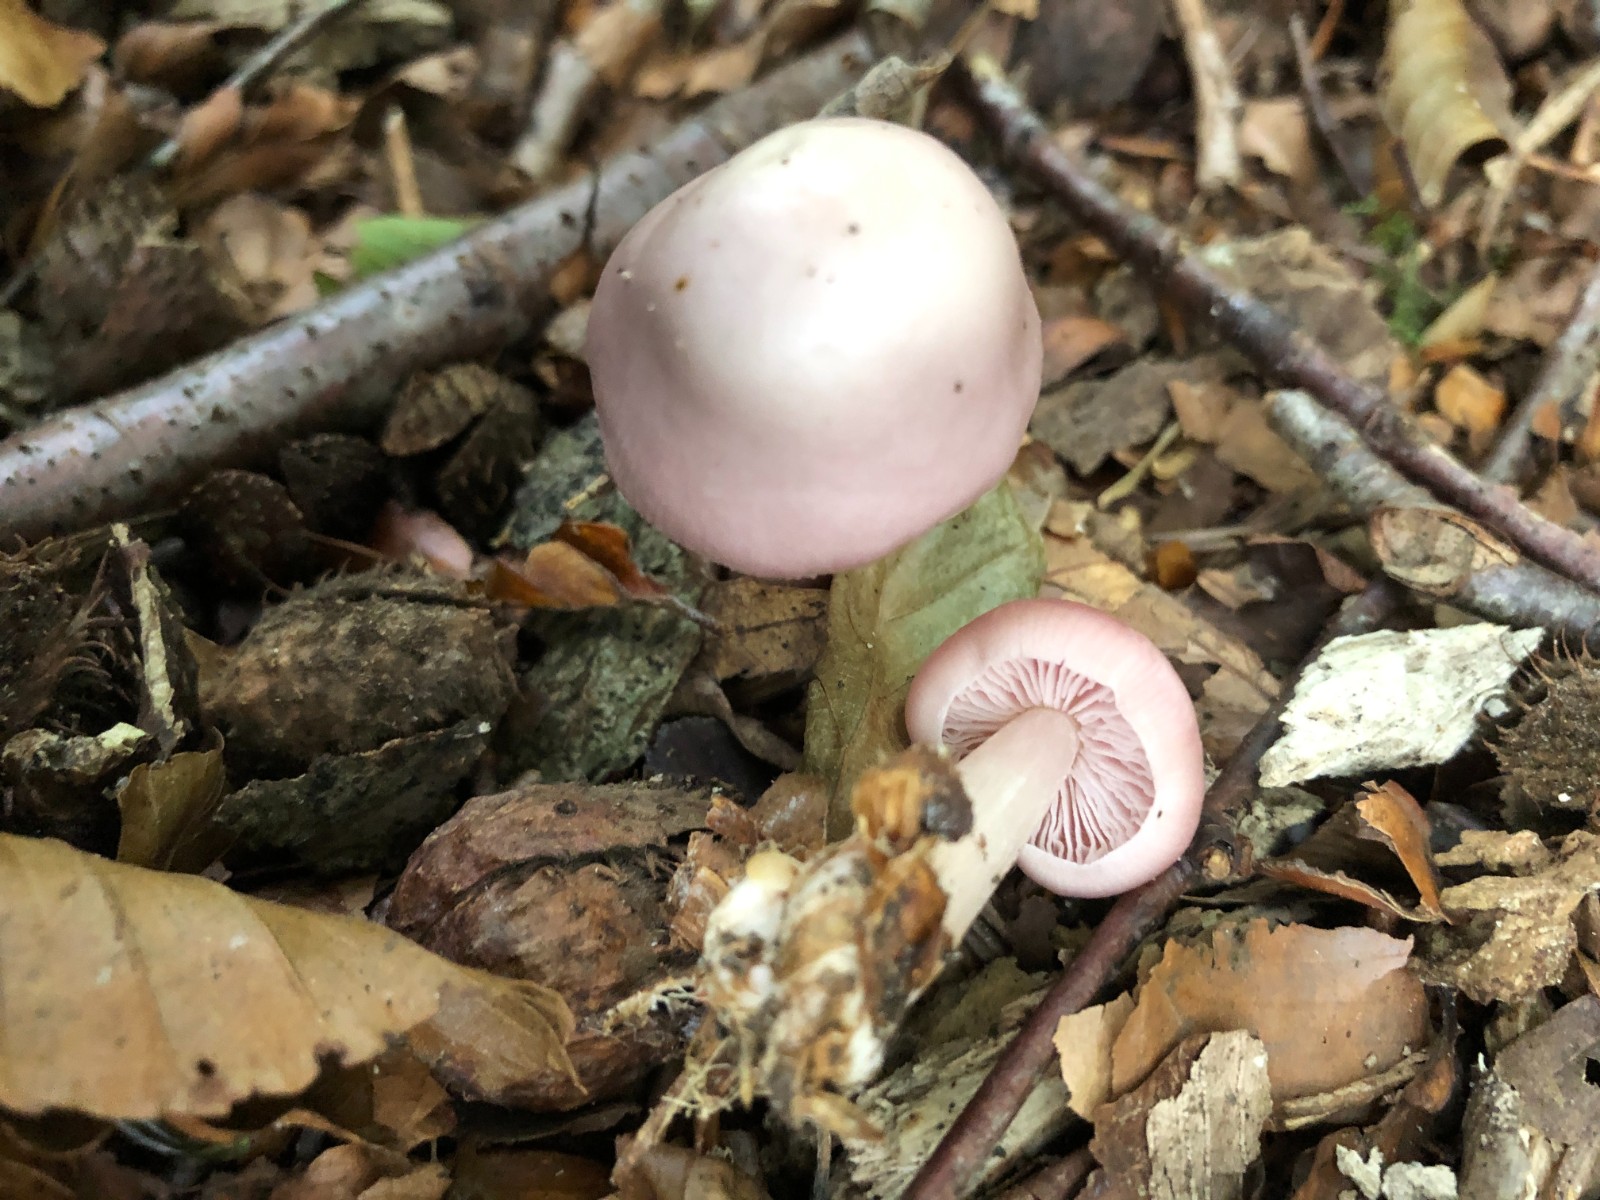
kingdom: Fungi
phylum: Basidiomycota
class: Agaricomycetes
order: Agaricales
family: Mycenaceae
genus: Mycena
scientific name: Mycena rosea
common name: rosa huesvamp
